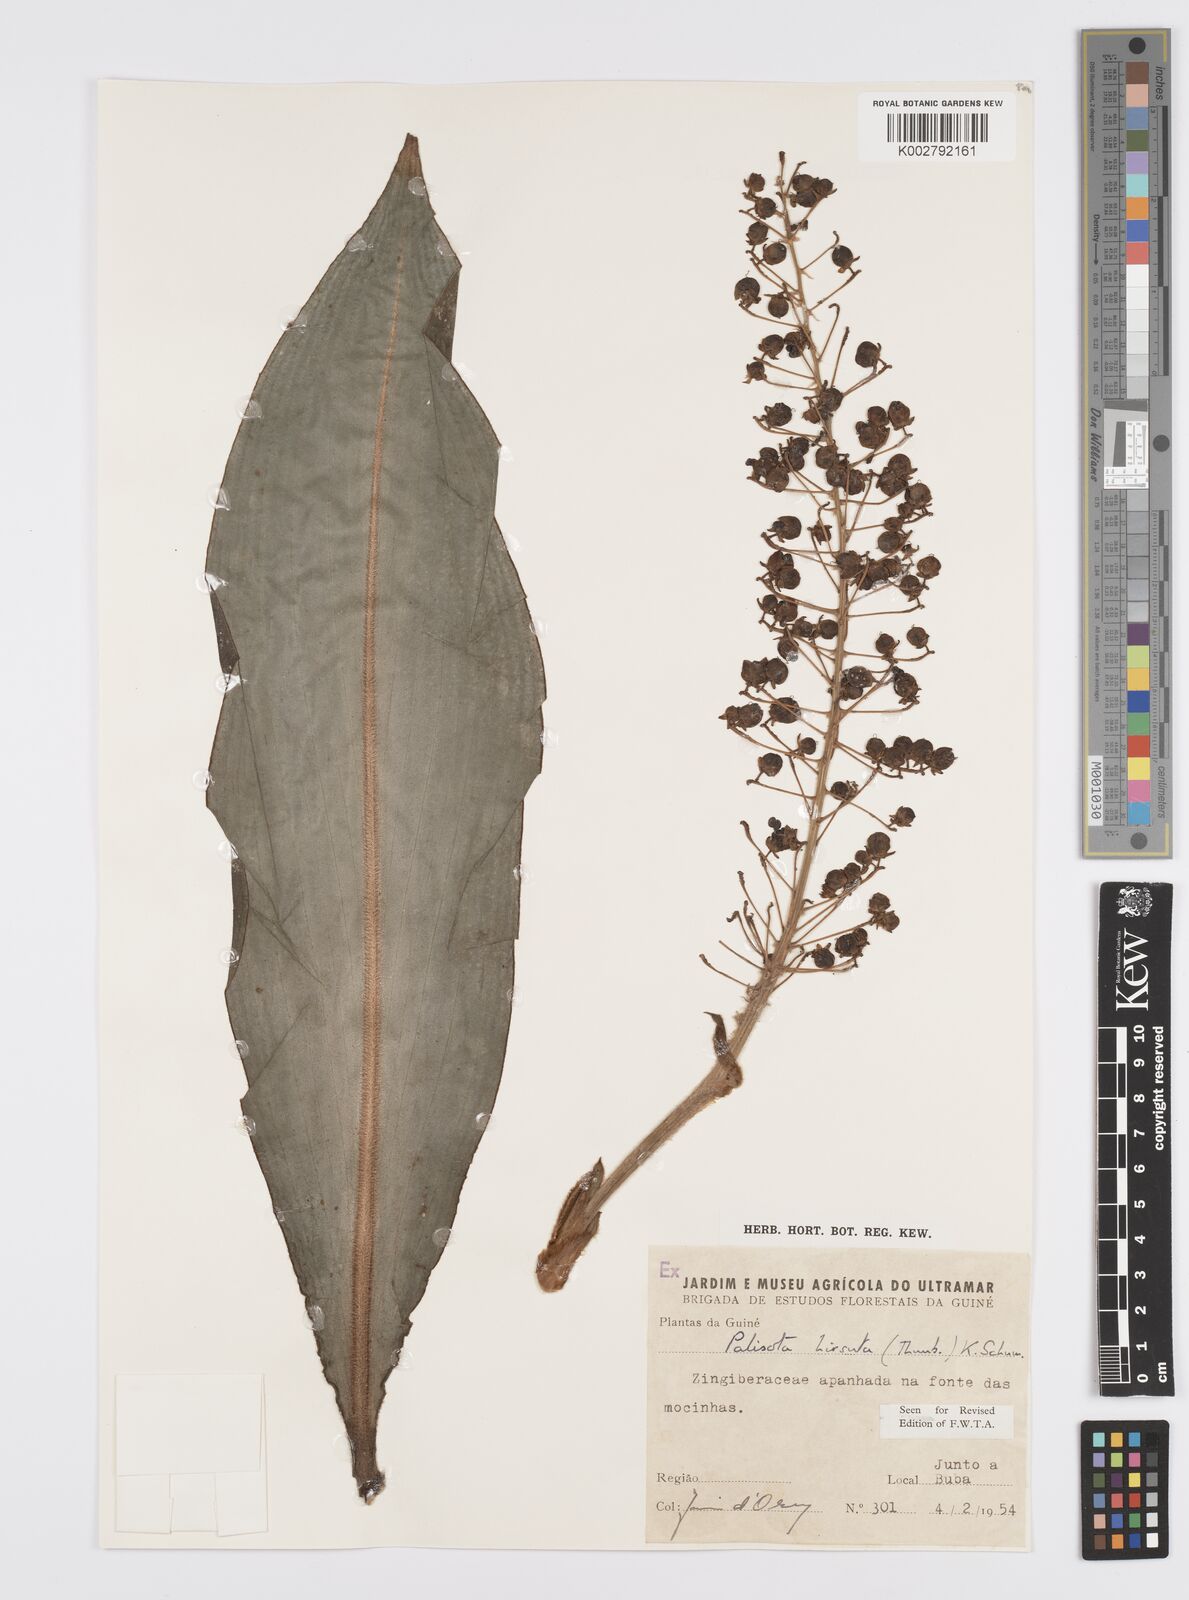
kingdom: Plantae
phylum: Tracheophyta
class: Liliopsida
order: Commelinales
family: Commelinaceae
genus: Palisota
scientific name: Palisota hirsuta
